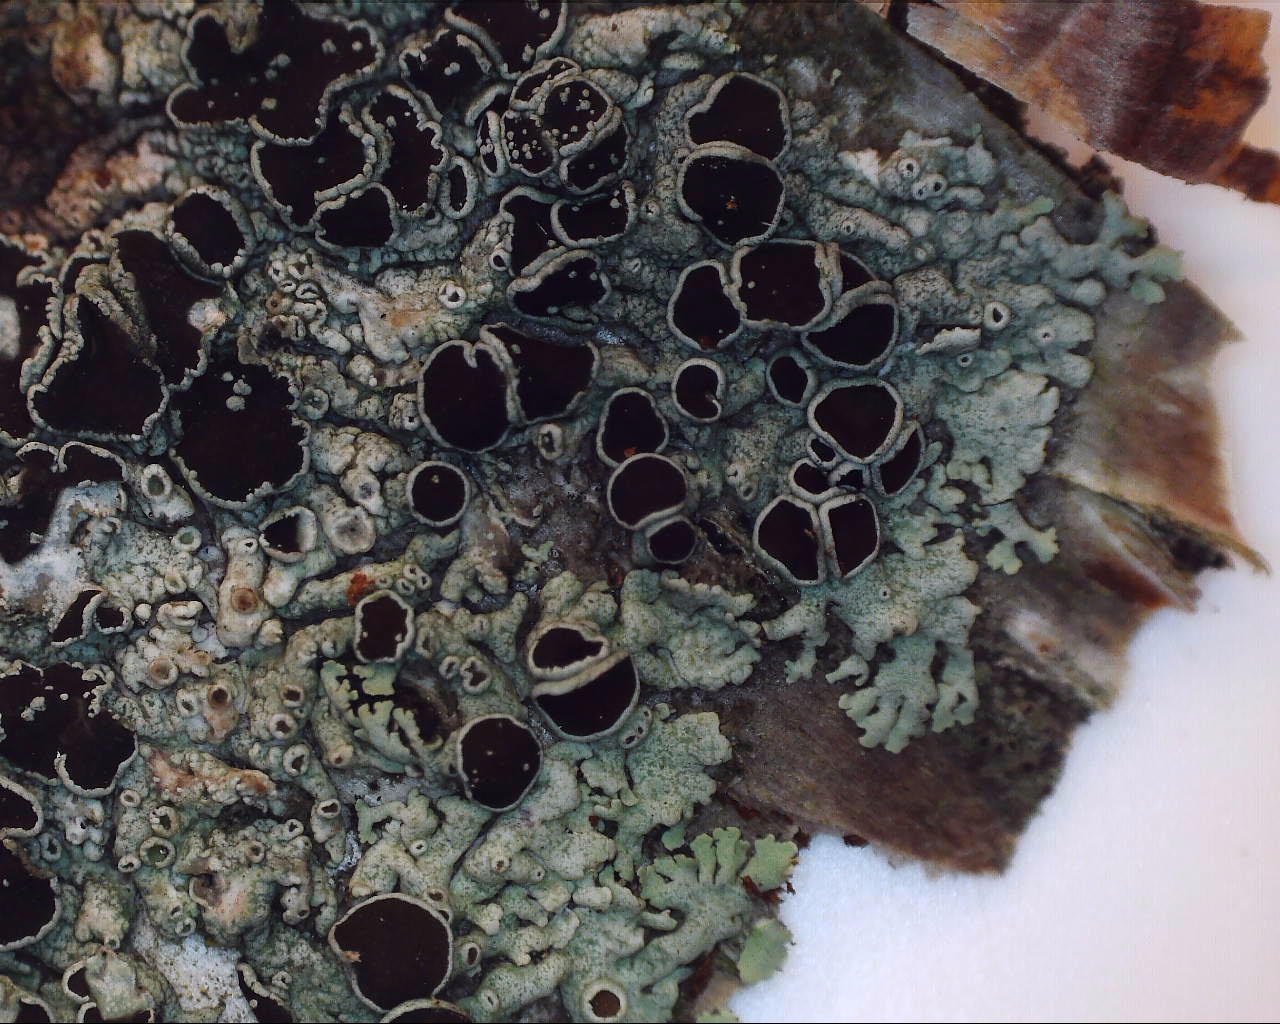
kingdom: Fungi
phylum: Ascomycota
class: Lecanoromycetes
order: Caliciales
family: Physciaceae
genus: Physcia
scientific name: Physcia aipolia
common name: hvidprikket rosetlav
